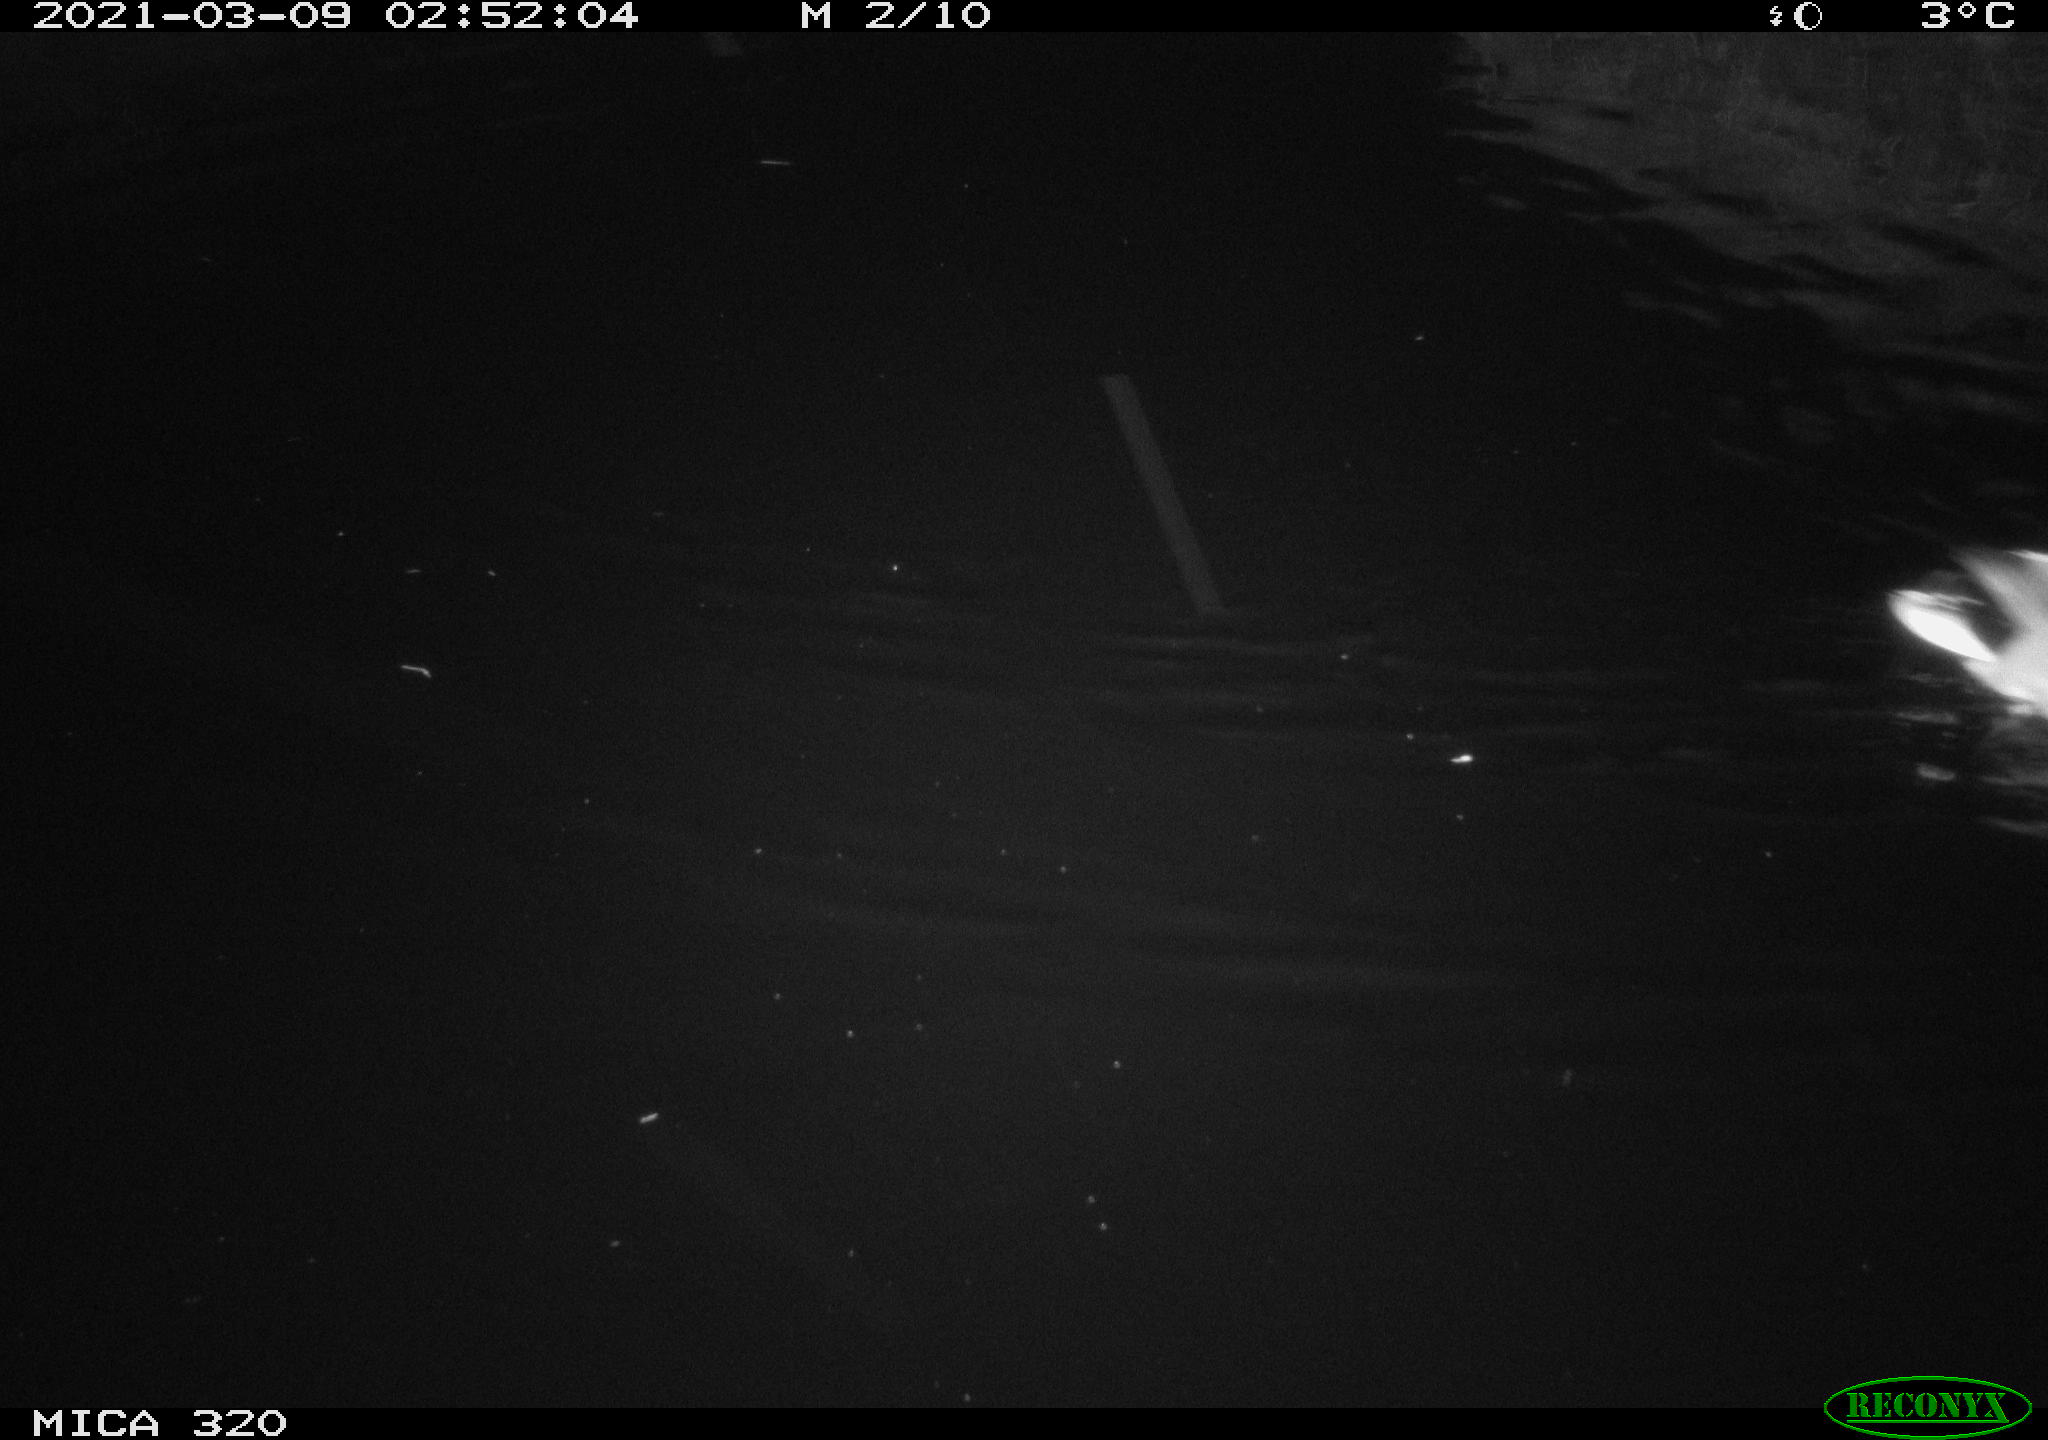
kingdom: Animalia
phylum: Chordata
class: Aves
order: Anseriformes
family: Anatidae
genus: Anas
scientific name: Anas platyrhynchos
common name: Mallard
